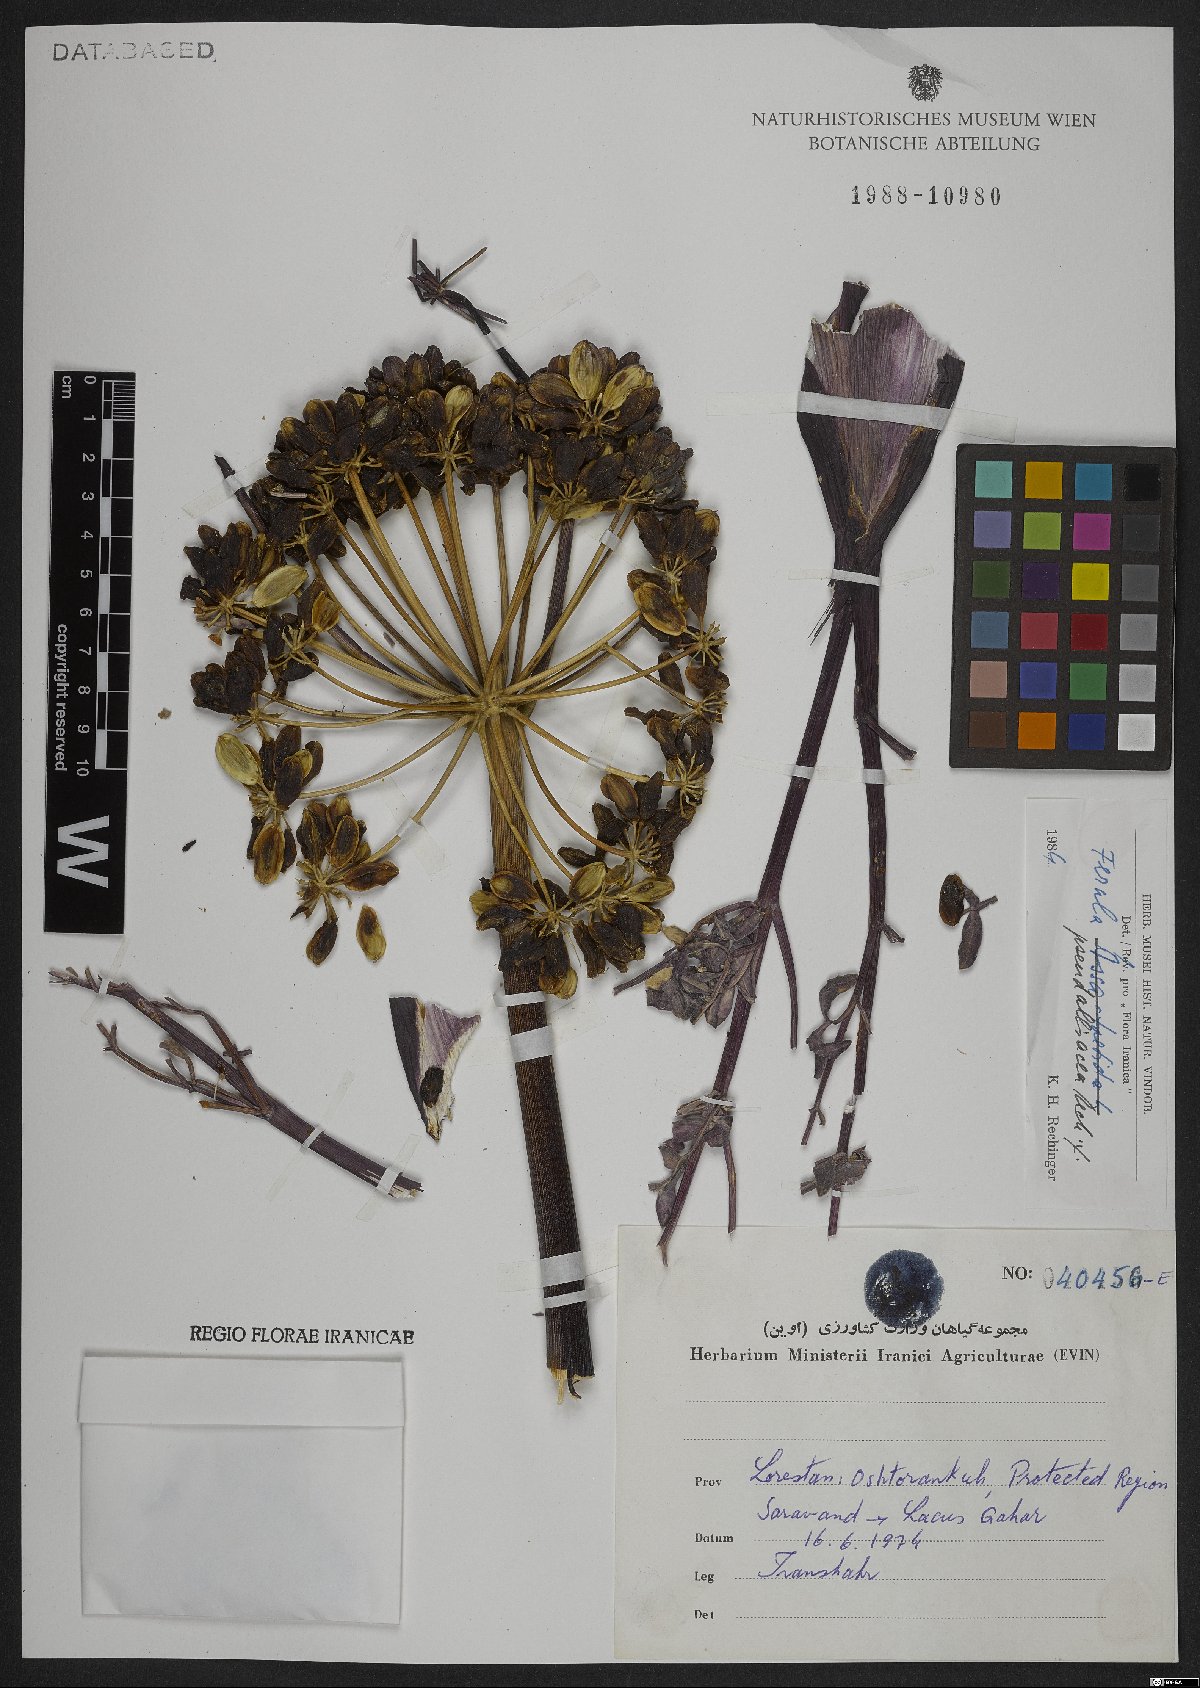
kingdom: Plantae
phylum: Tracheophyta
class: Magnoliopsida
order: Apiales
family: Apiaceae
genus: Ferula
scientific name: Ferula pseudalliacea
